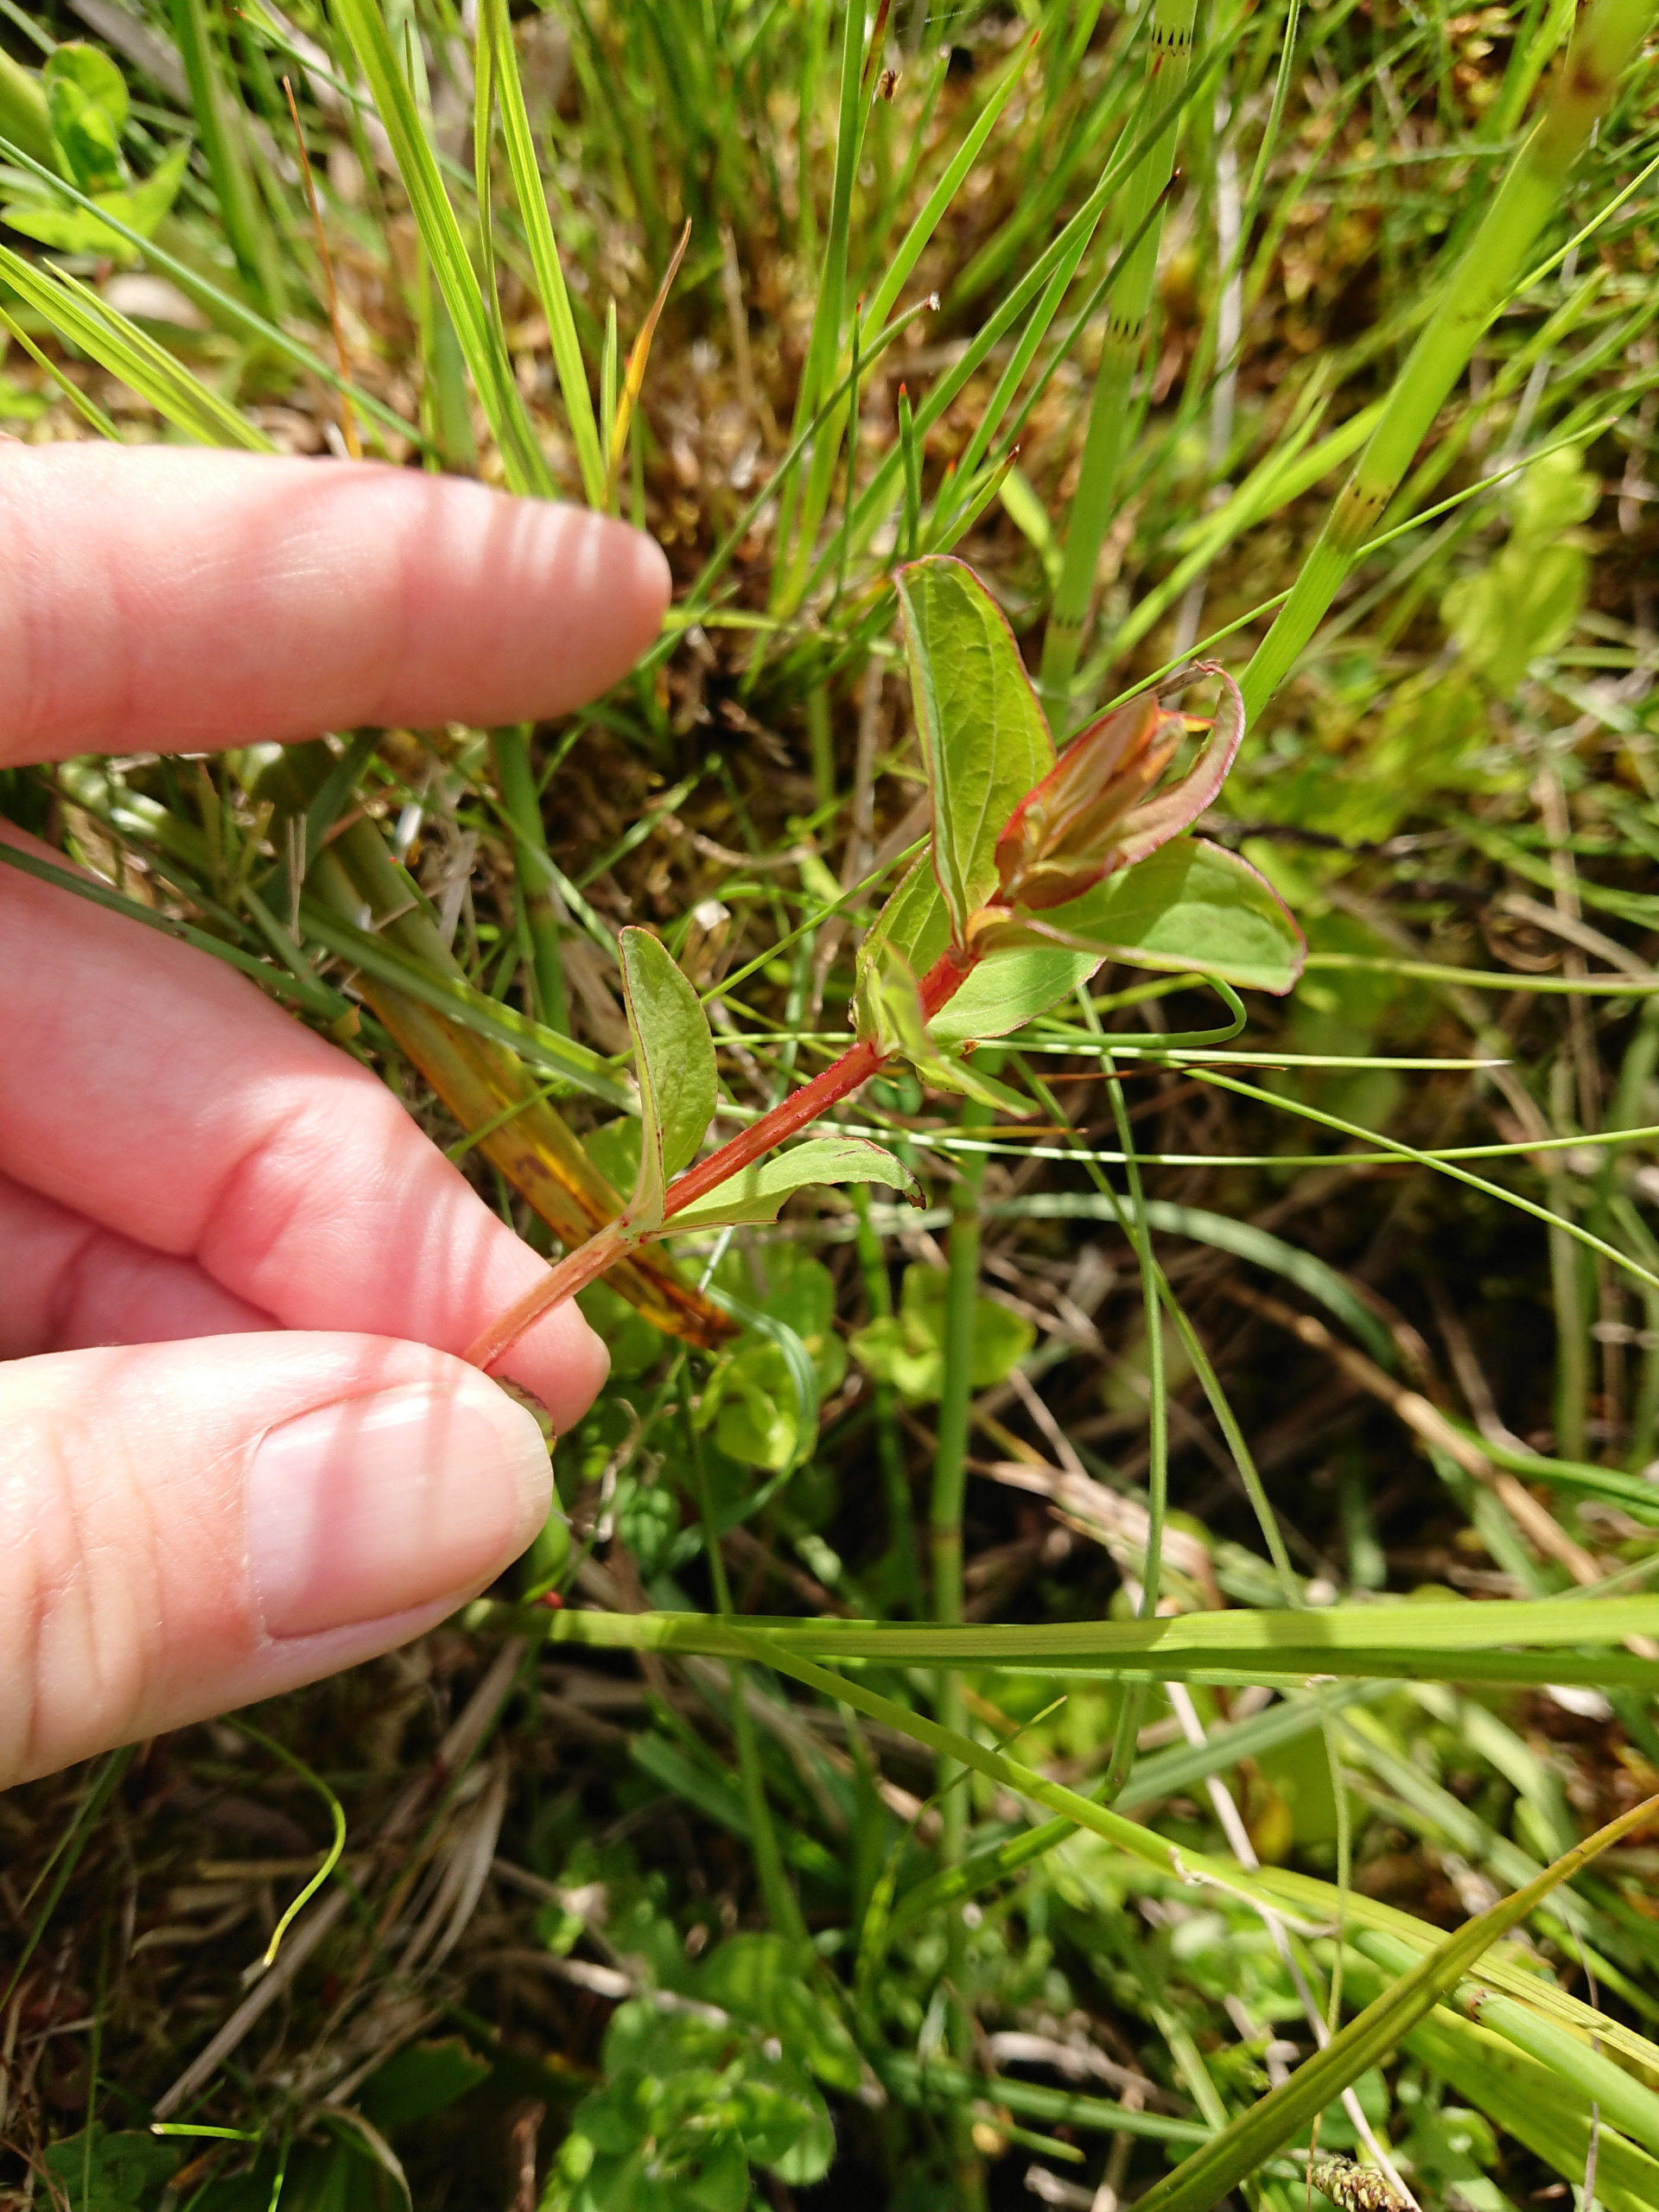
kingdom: Plantae
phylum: Tracheophyta
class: Magnoliopsida
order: Malpighiales
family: Hypericaceae
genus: Hypericum
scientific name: Hypericum tetrapterum
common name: Vinget perikon
